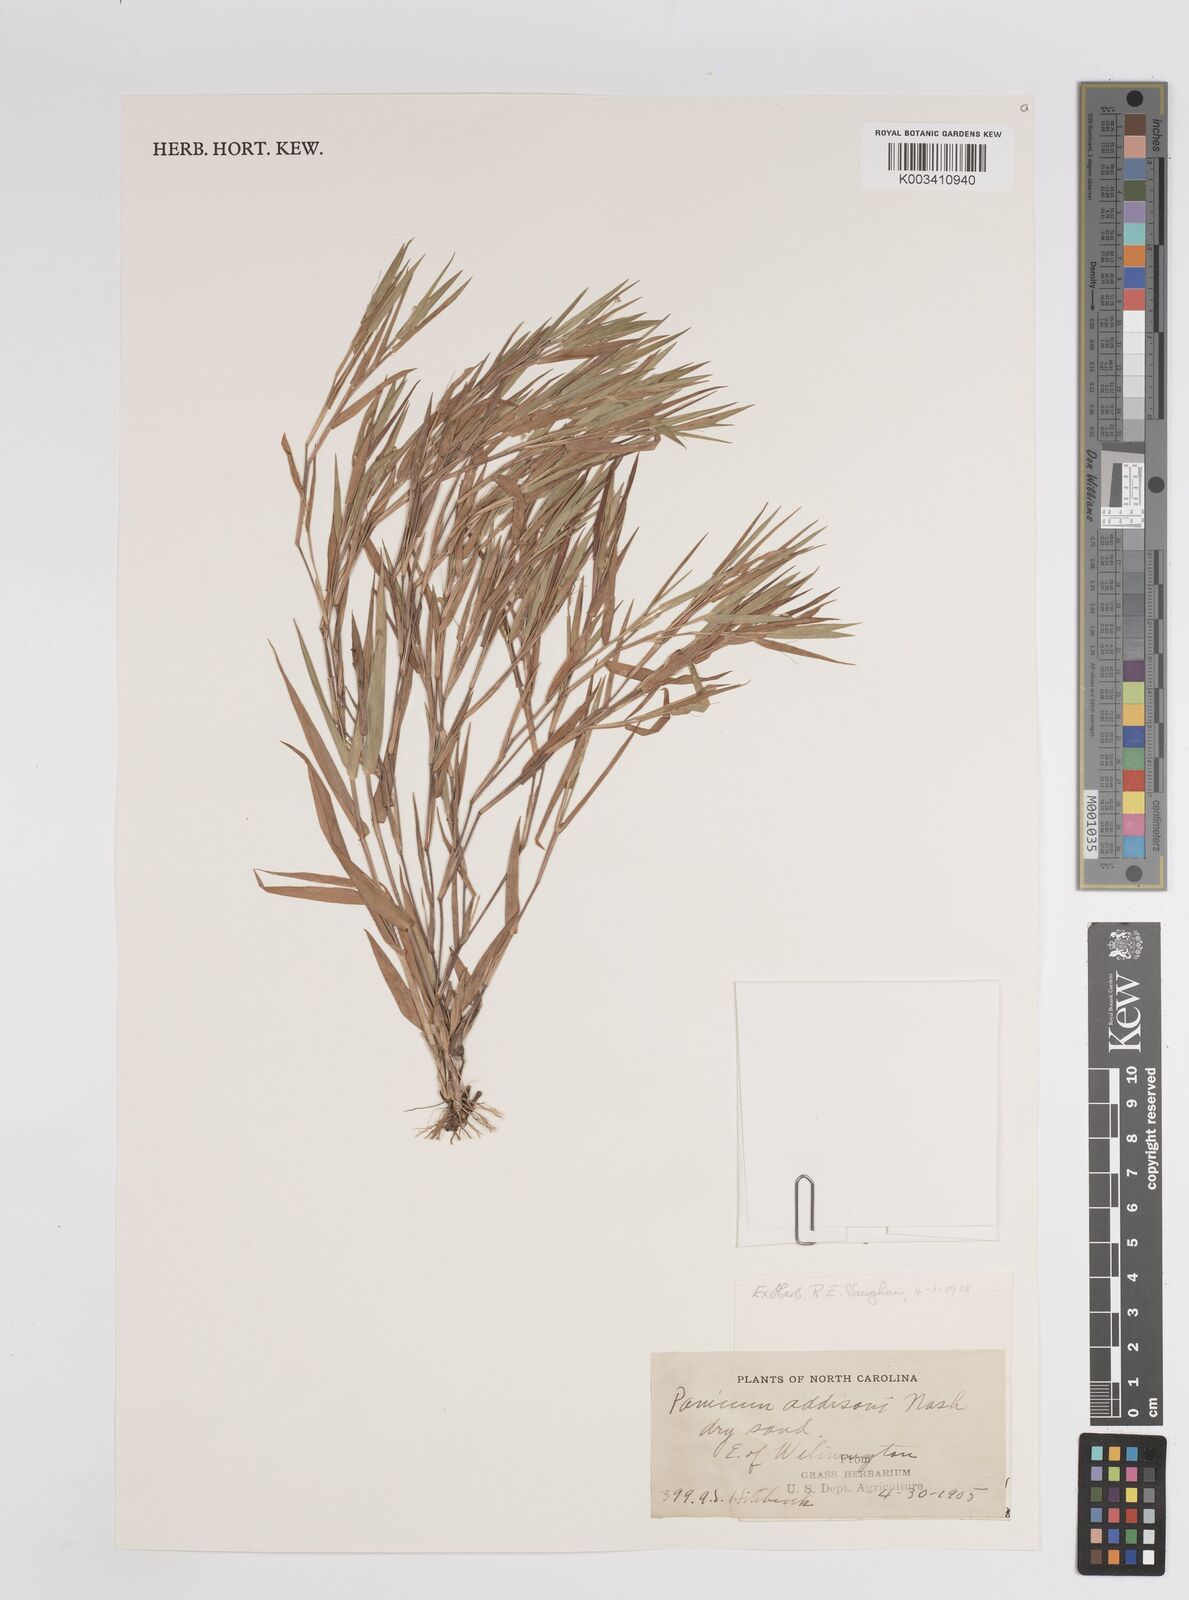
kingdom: Plantae
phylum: Tracheophyta
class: Liliopsida
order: Poales
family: Poaceae
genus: Dichanthelium
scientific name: Dichanthelium commonsianum
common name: Commons' panicgrass
